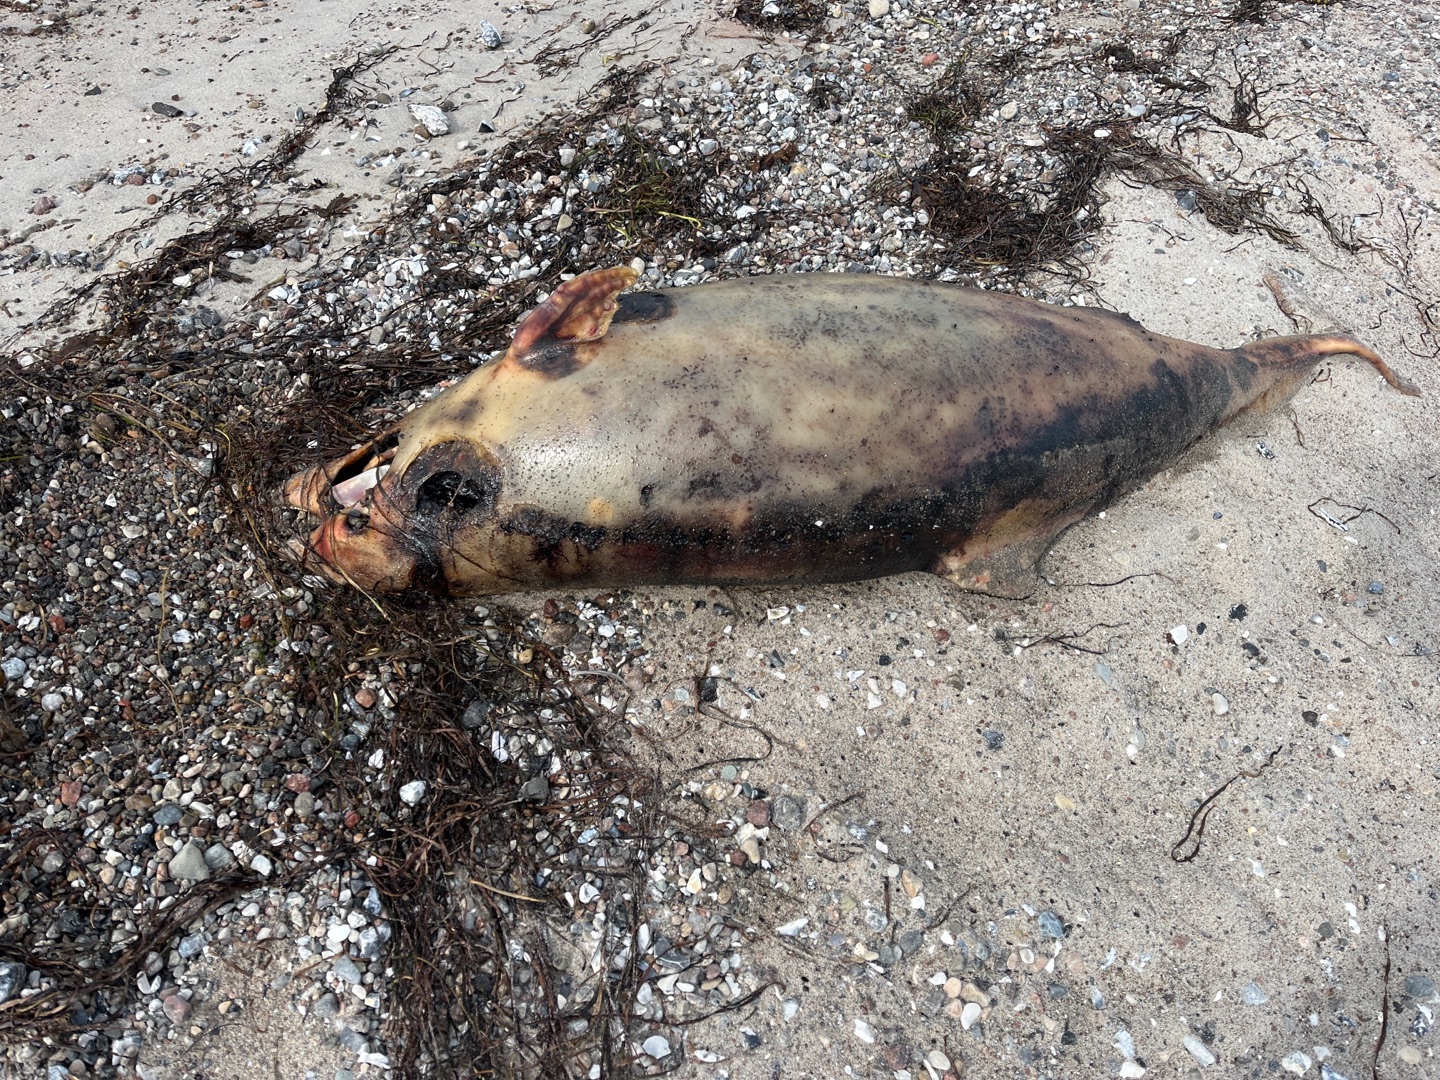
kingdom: Animalia
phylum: Chordata
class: Mammalia
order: Cetacea
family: Phocoenidae
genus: Phocoena
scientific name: Phocoena phocoena
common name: Marsvin
